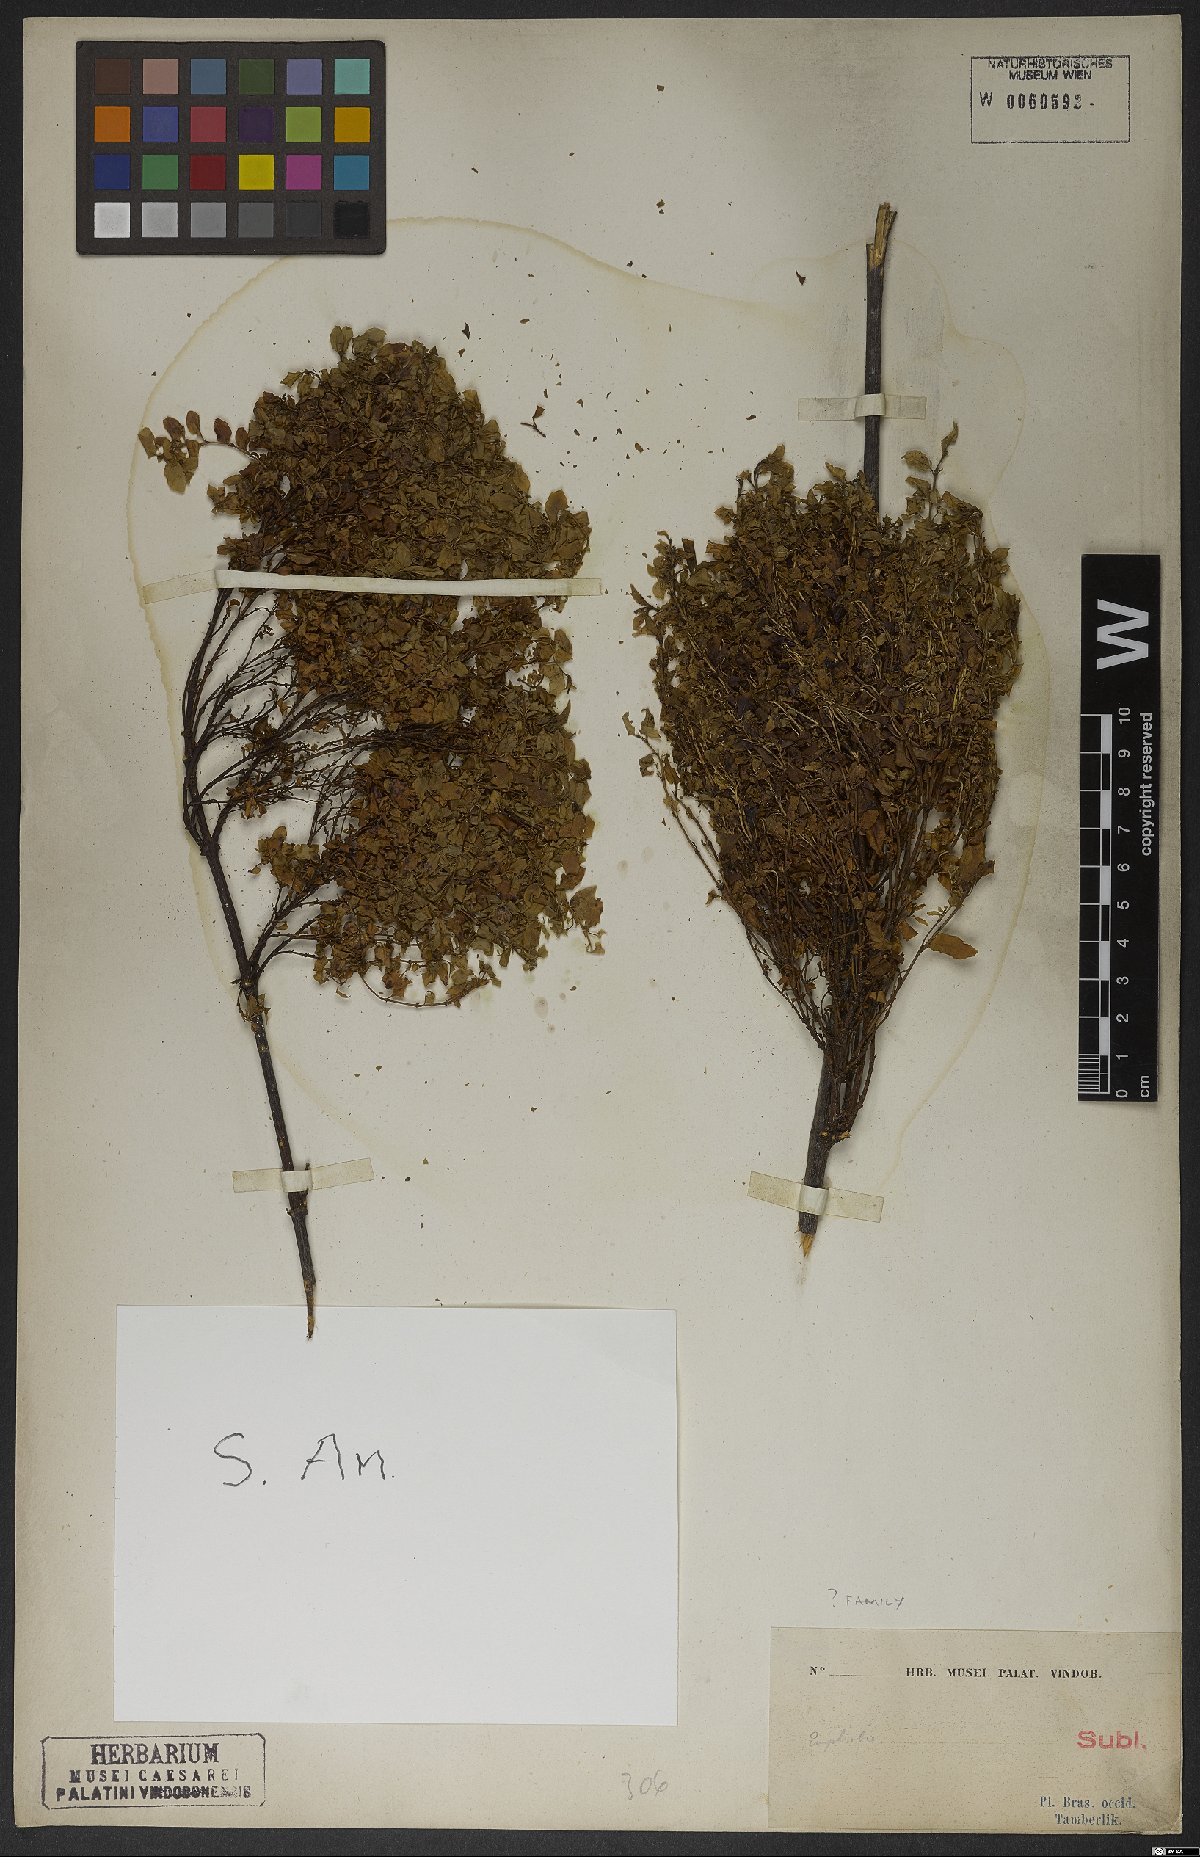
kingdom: Plantae
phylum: Tracheophyta
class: Magnoliopsida
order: Malpighiales
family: Euphorbiaceae
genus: Euphorbia
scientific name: Euphorbia
